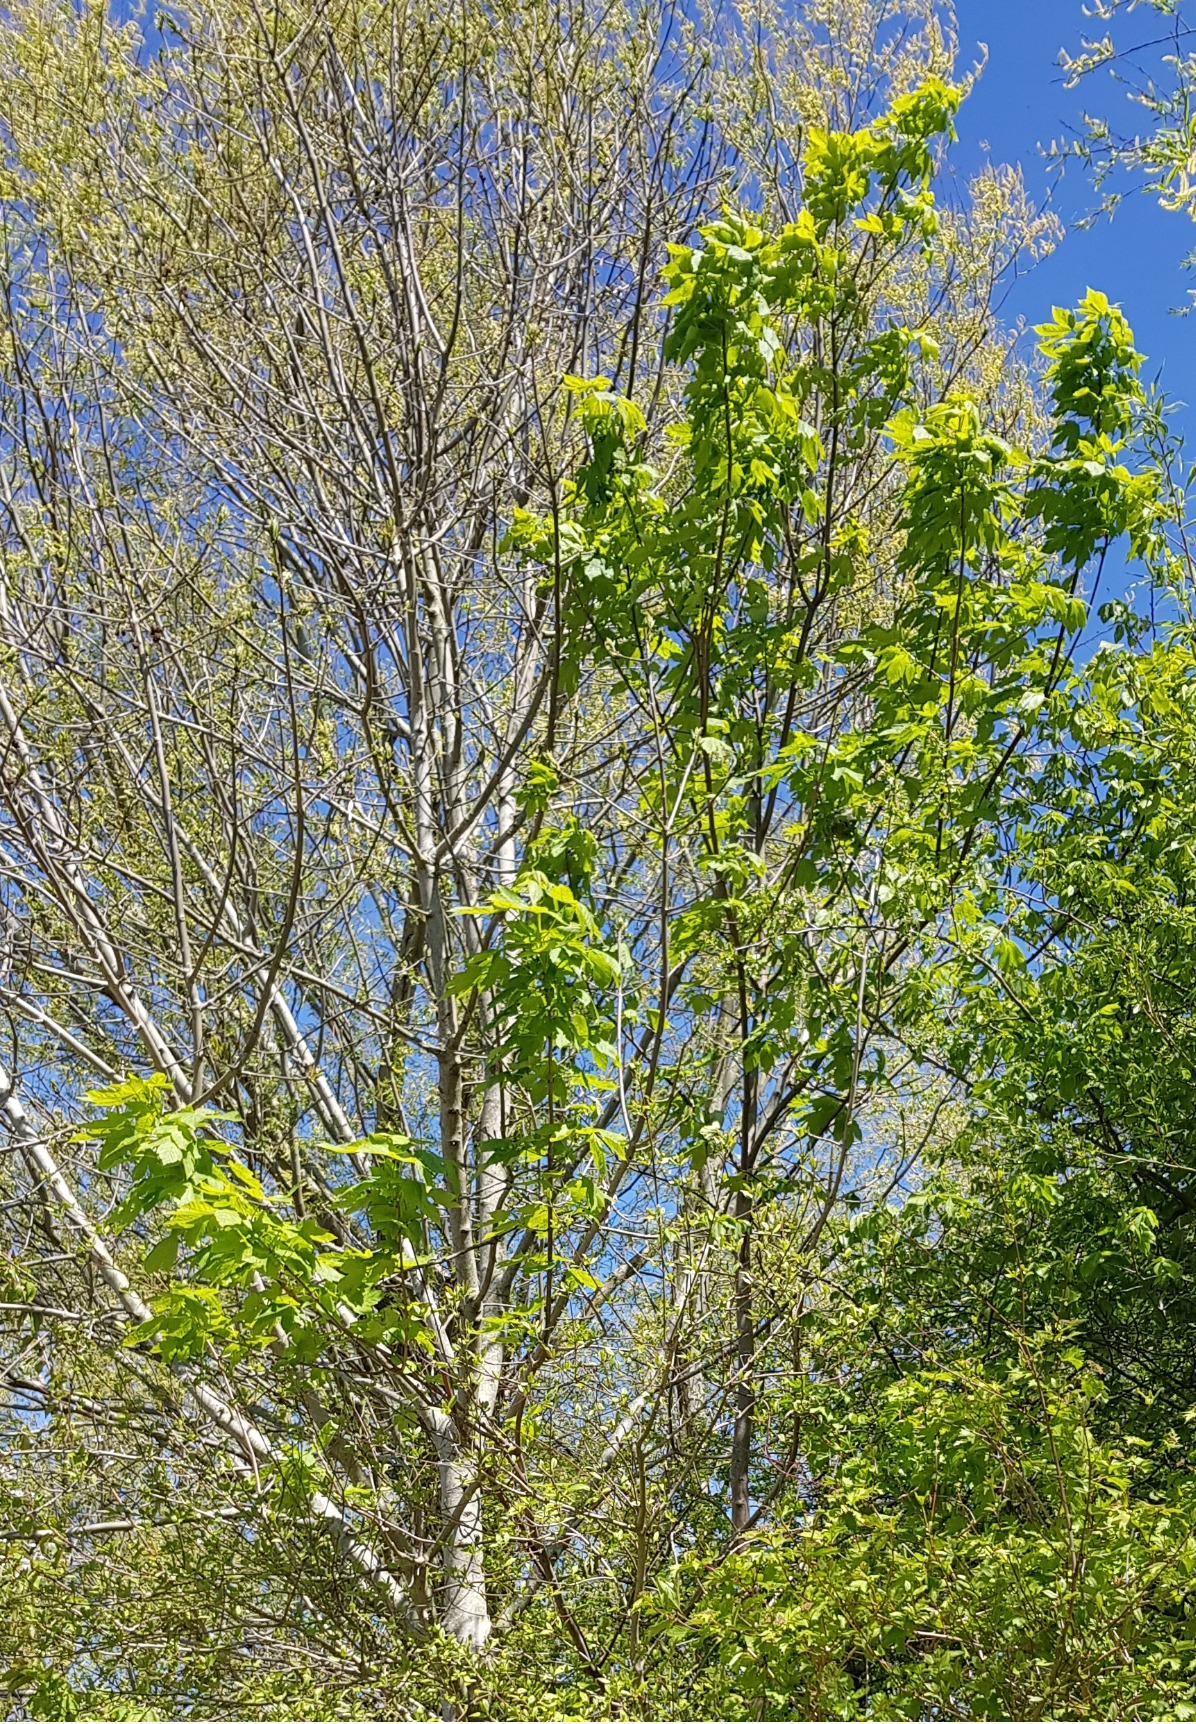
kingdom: Plantae
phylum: Tracheophyta
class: Magnoliopsida
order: Sapindales
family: Sapindaceae
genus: Acer
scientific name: Acer pseudoplatanus
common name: Ahorn
